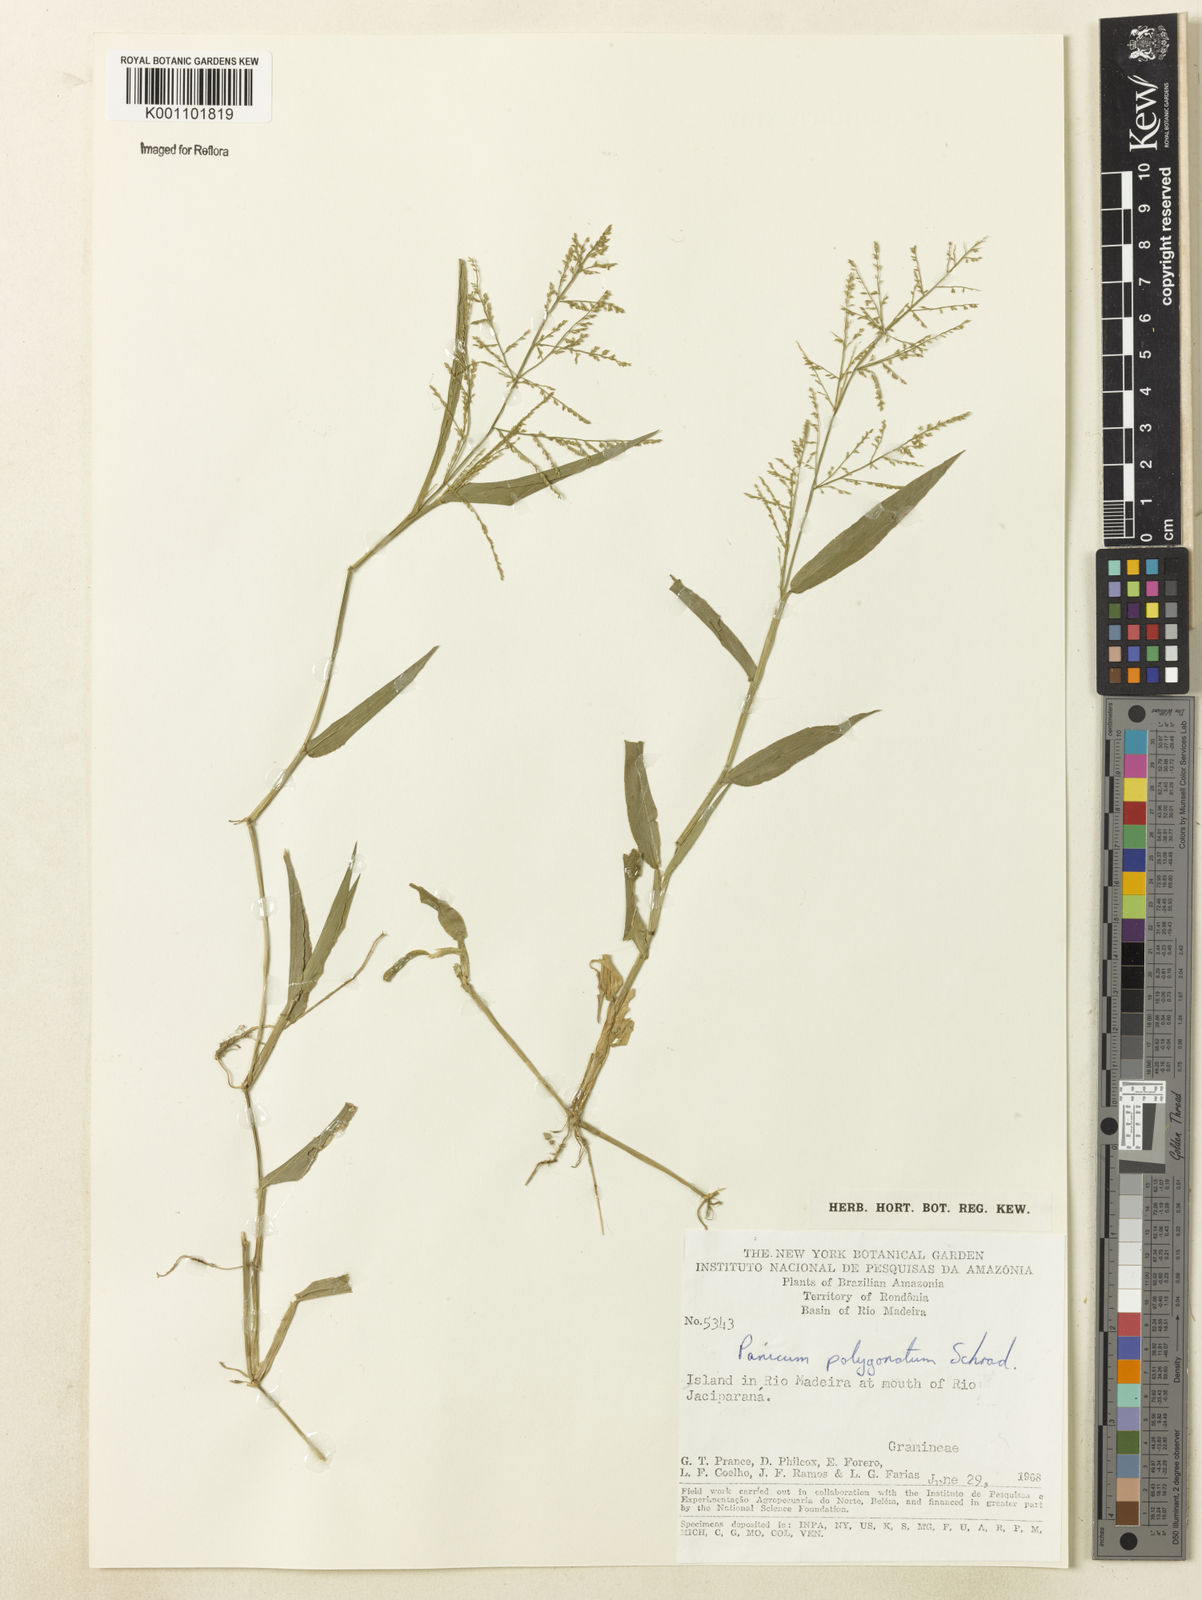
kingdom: Plantae
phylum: Tracheophyta
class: Liliopsida
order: Poales
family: Poaceae
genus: Rugoloa
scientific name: Rugoloa polygonata
